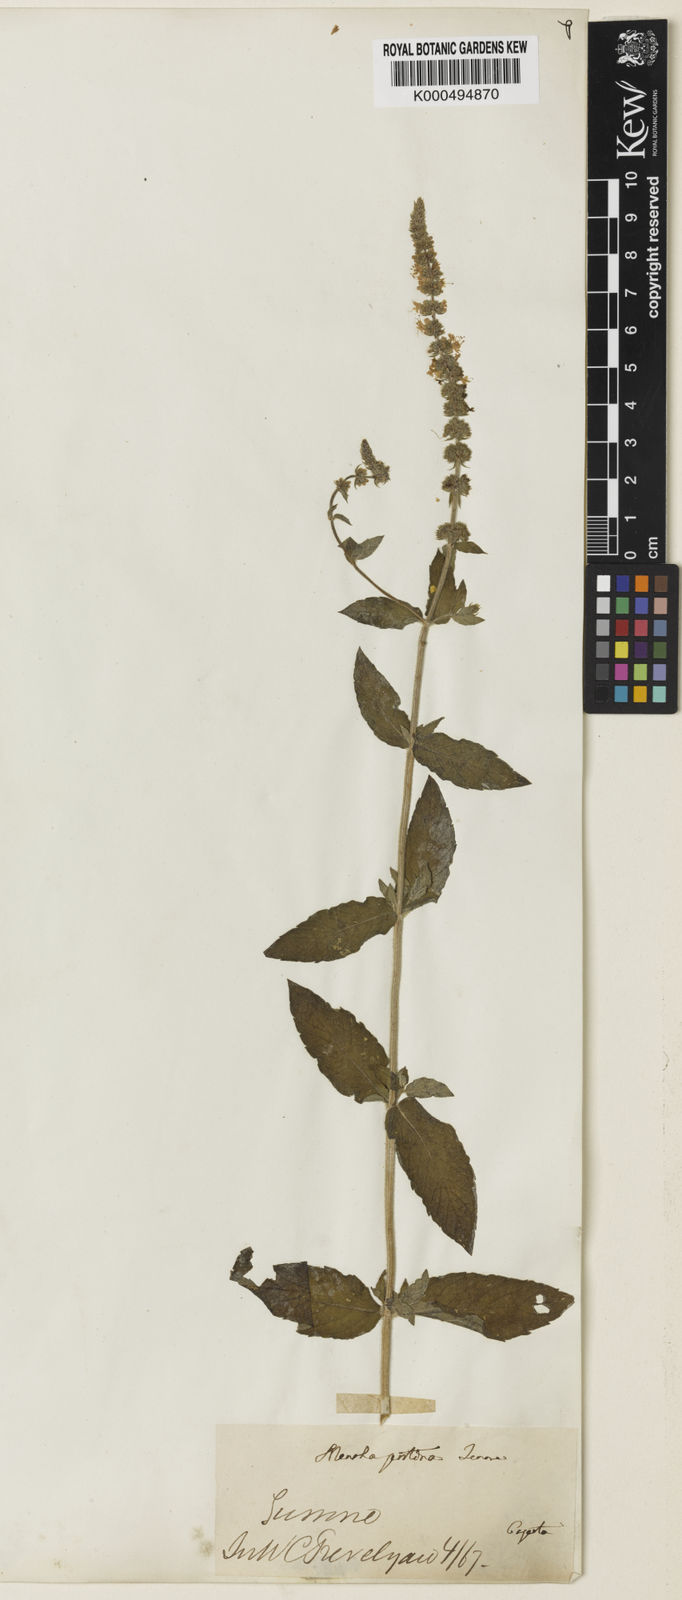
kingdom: Plantae
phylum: Tracheophyta
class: Magnoliopsida
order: Lamiales
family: Lamiaceae
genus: Mentha
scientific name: Mentha rotundifolia
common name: Bigleaf mint
